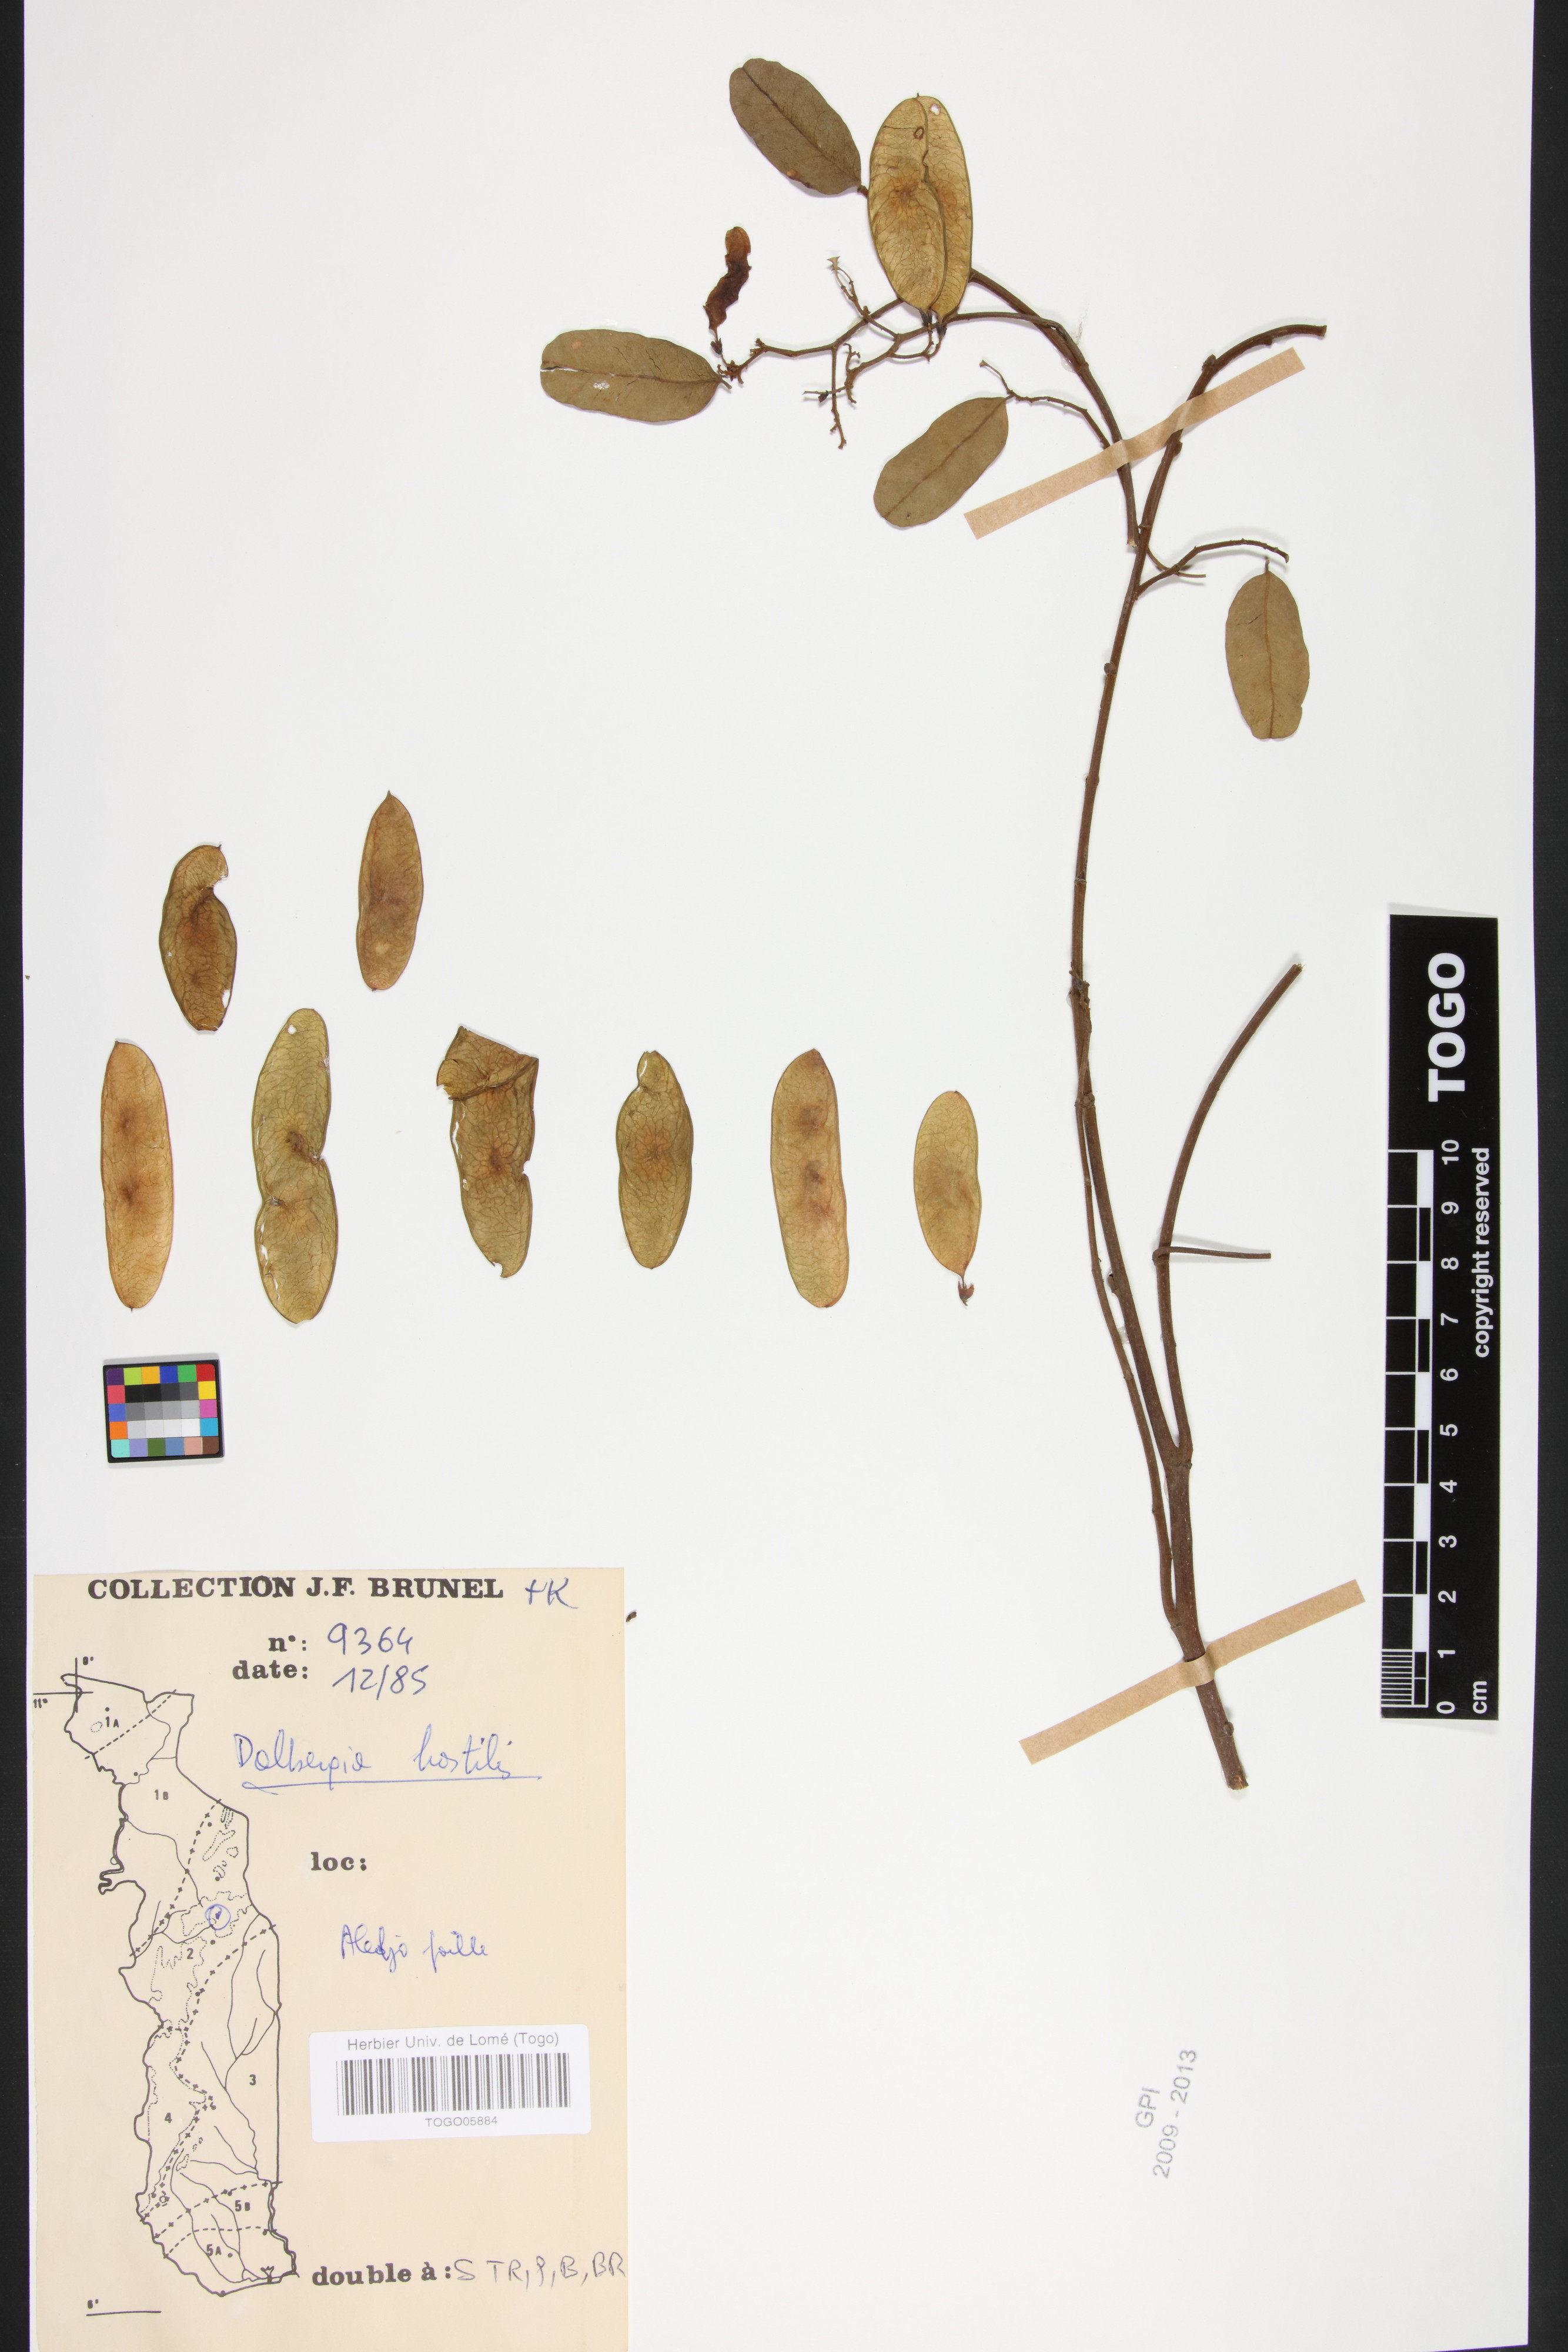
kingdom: Plantae
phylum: Tracheophyta
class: Magnoliopsida
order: Fabales
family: Fabaceae
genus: Dalbergia
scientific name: Dalbergia hostilis
